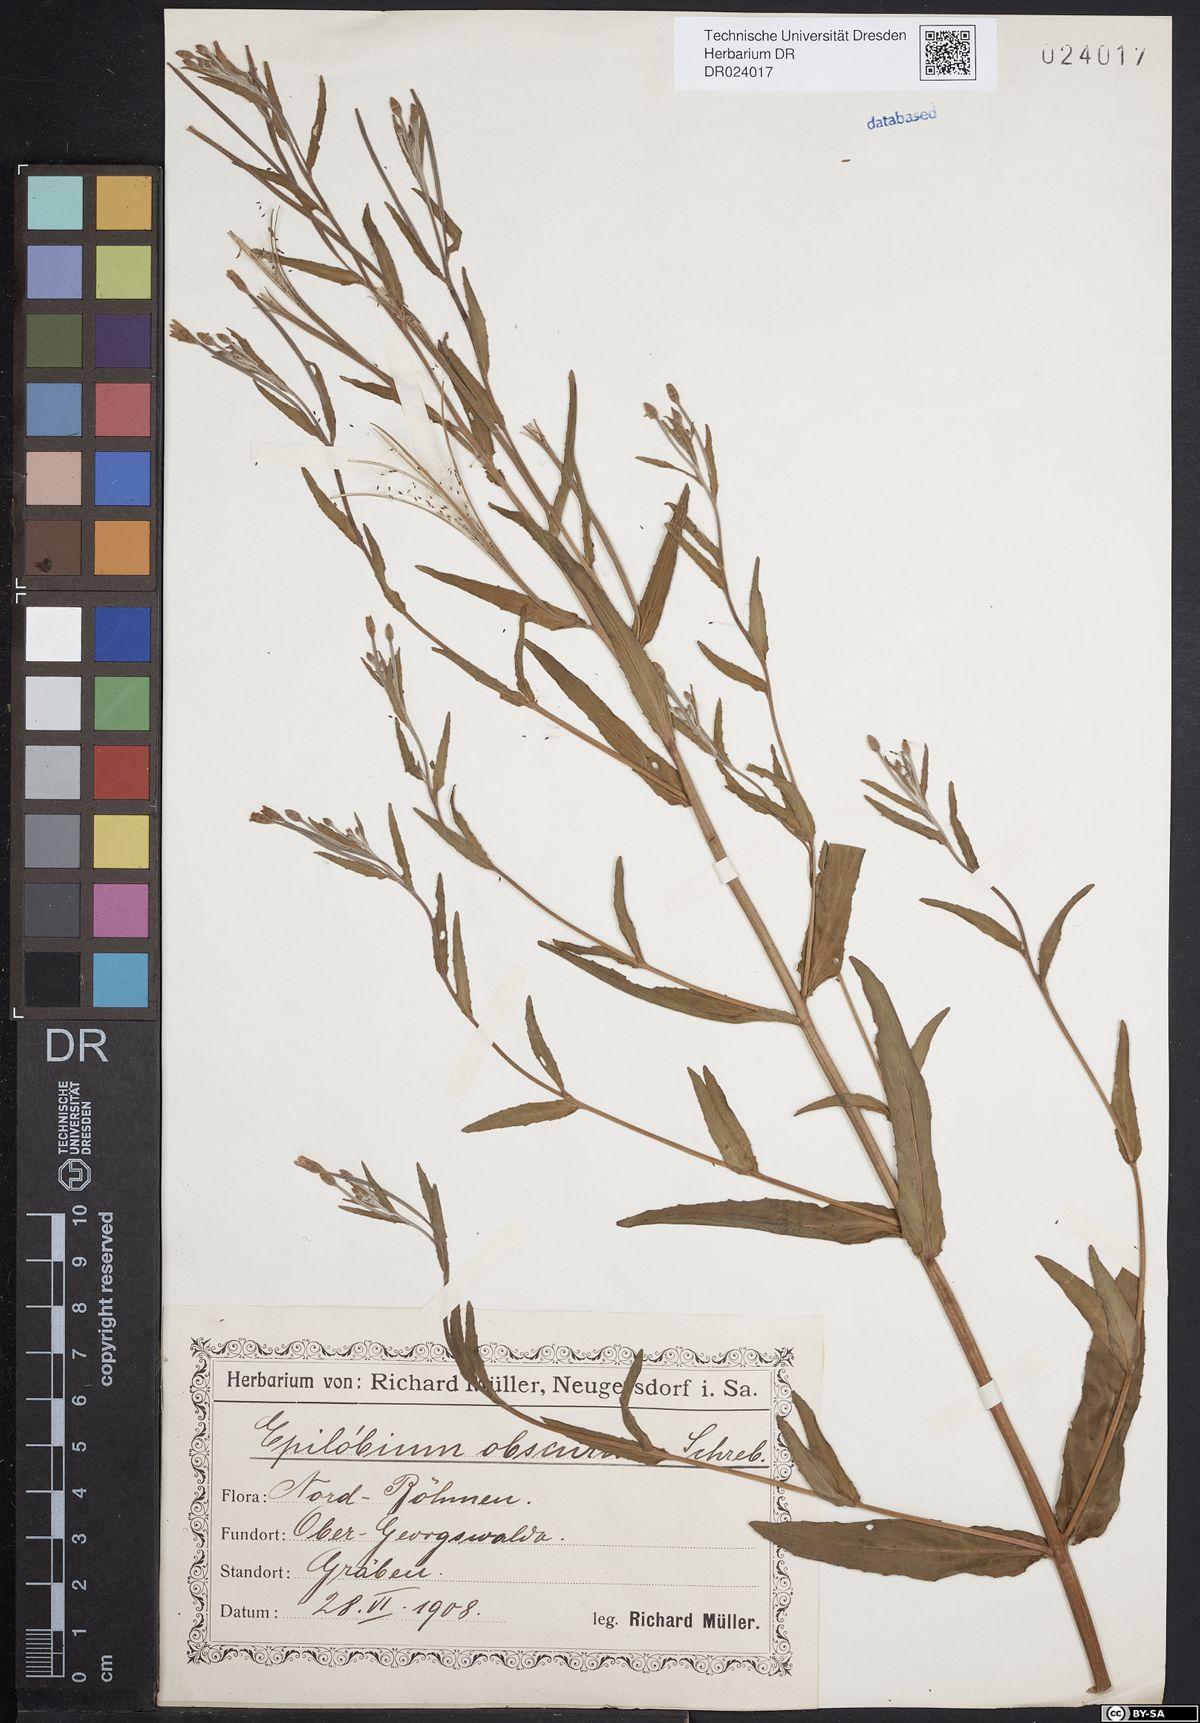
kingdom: Plantae
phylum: Tracheophyta
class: Magnoliopsida
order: Myrtales
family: Onagraceae
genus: Epilobium
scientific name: Epilobium obscurum
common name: Short-fruited willowherb
